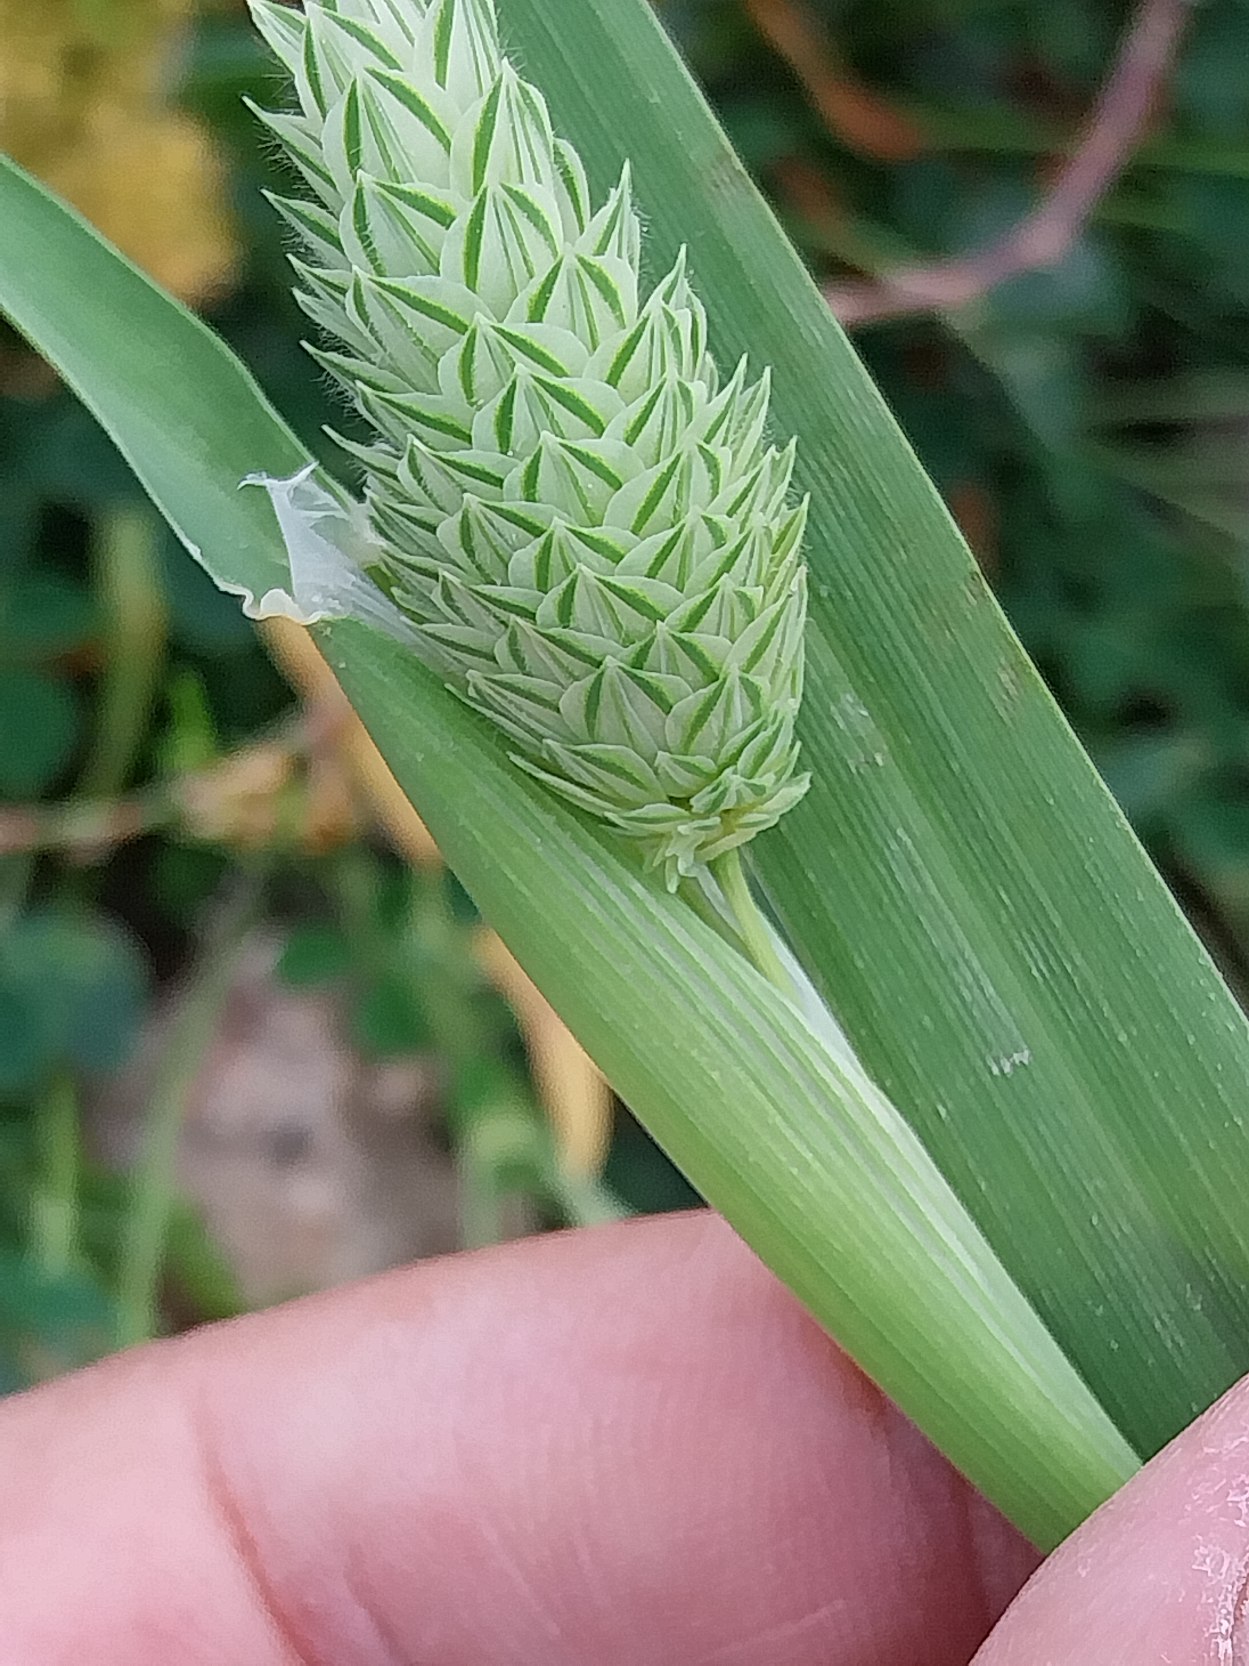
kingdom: Plantae
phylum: Tracheophyta
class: Liliopsida
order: Poales
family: Poaceae
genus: Phalaris
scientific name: Phalaris canariensis
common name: Kanariegræs
